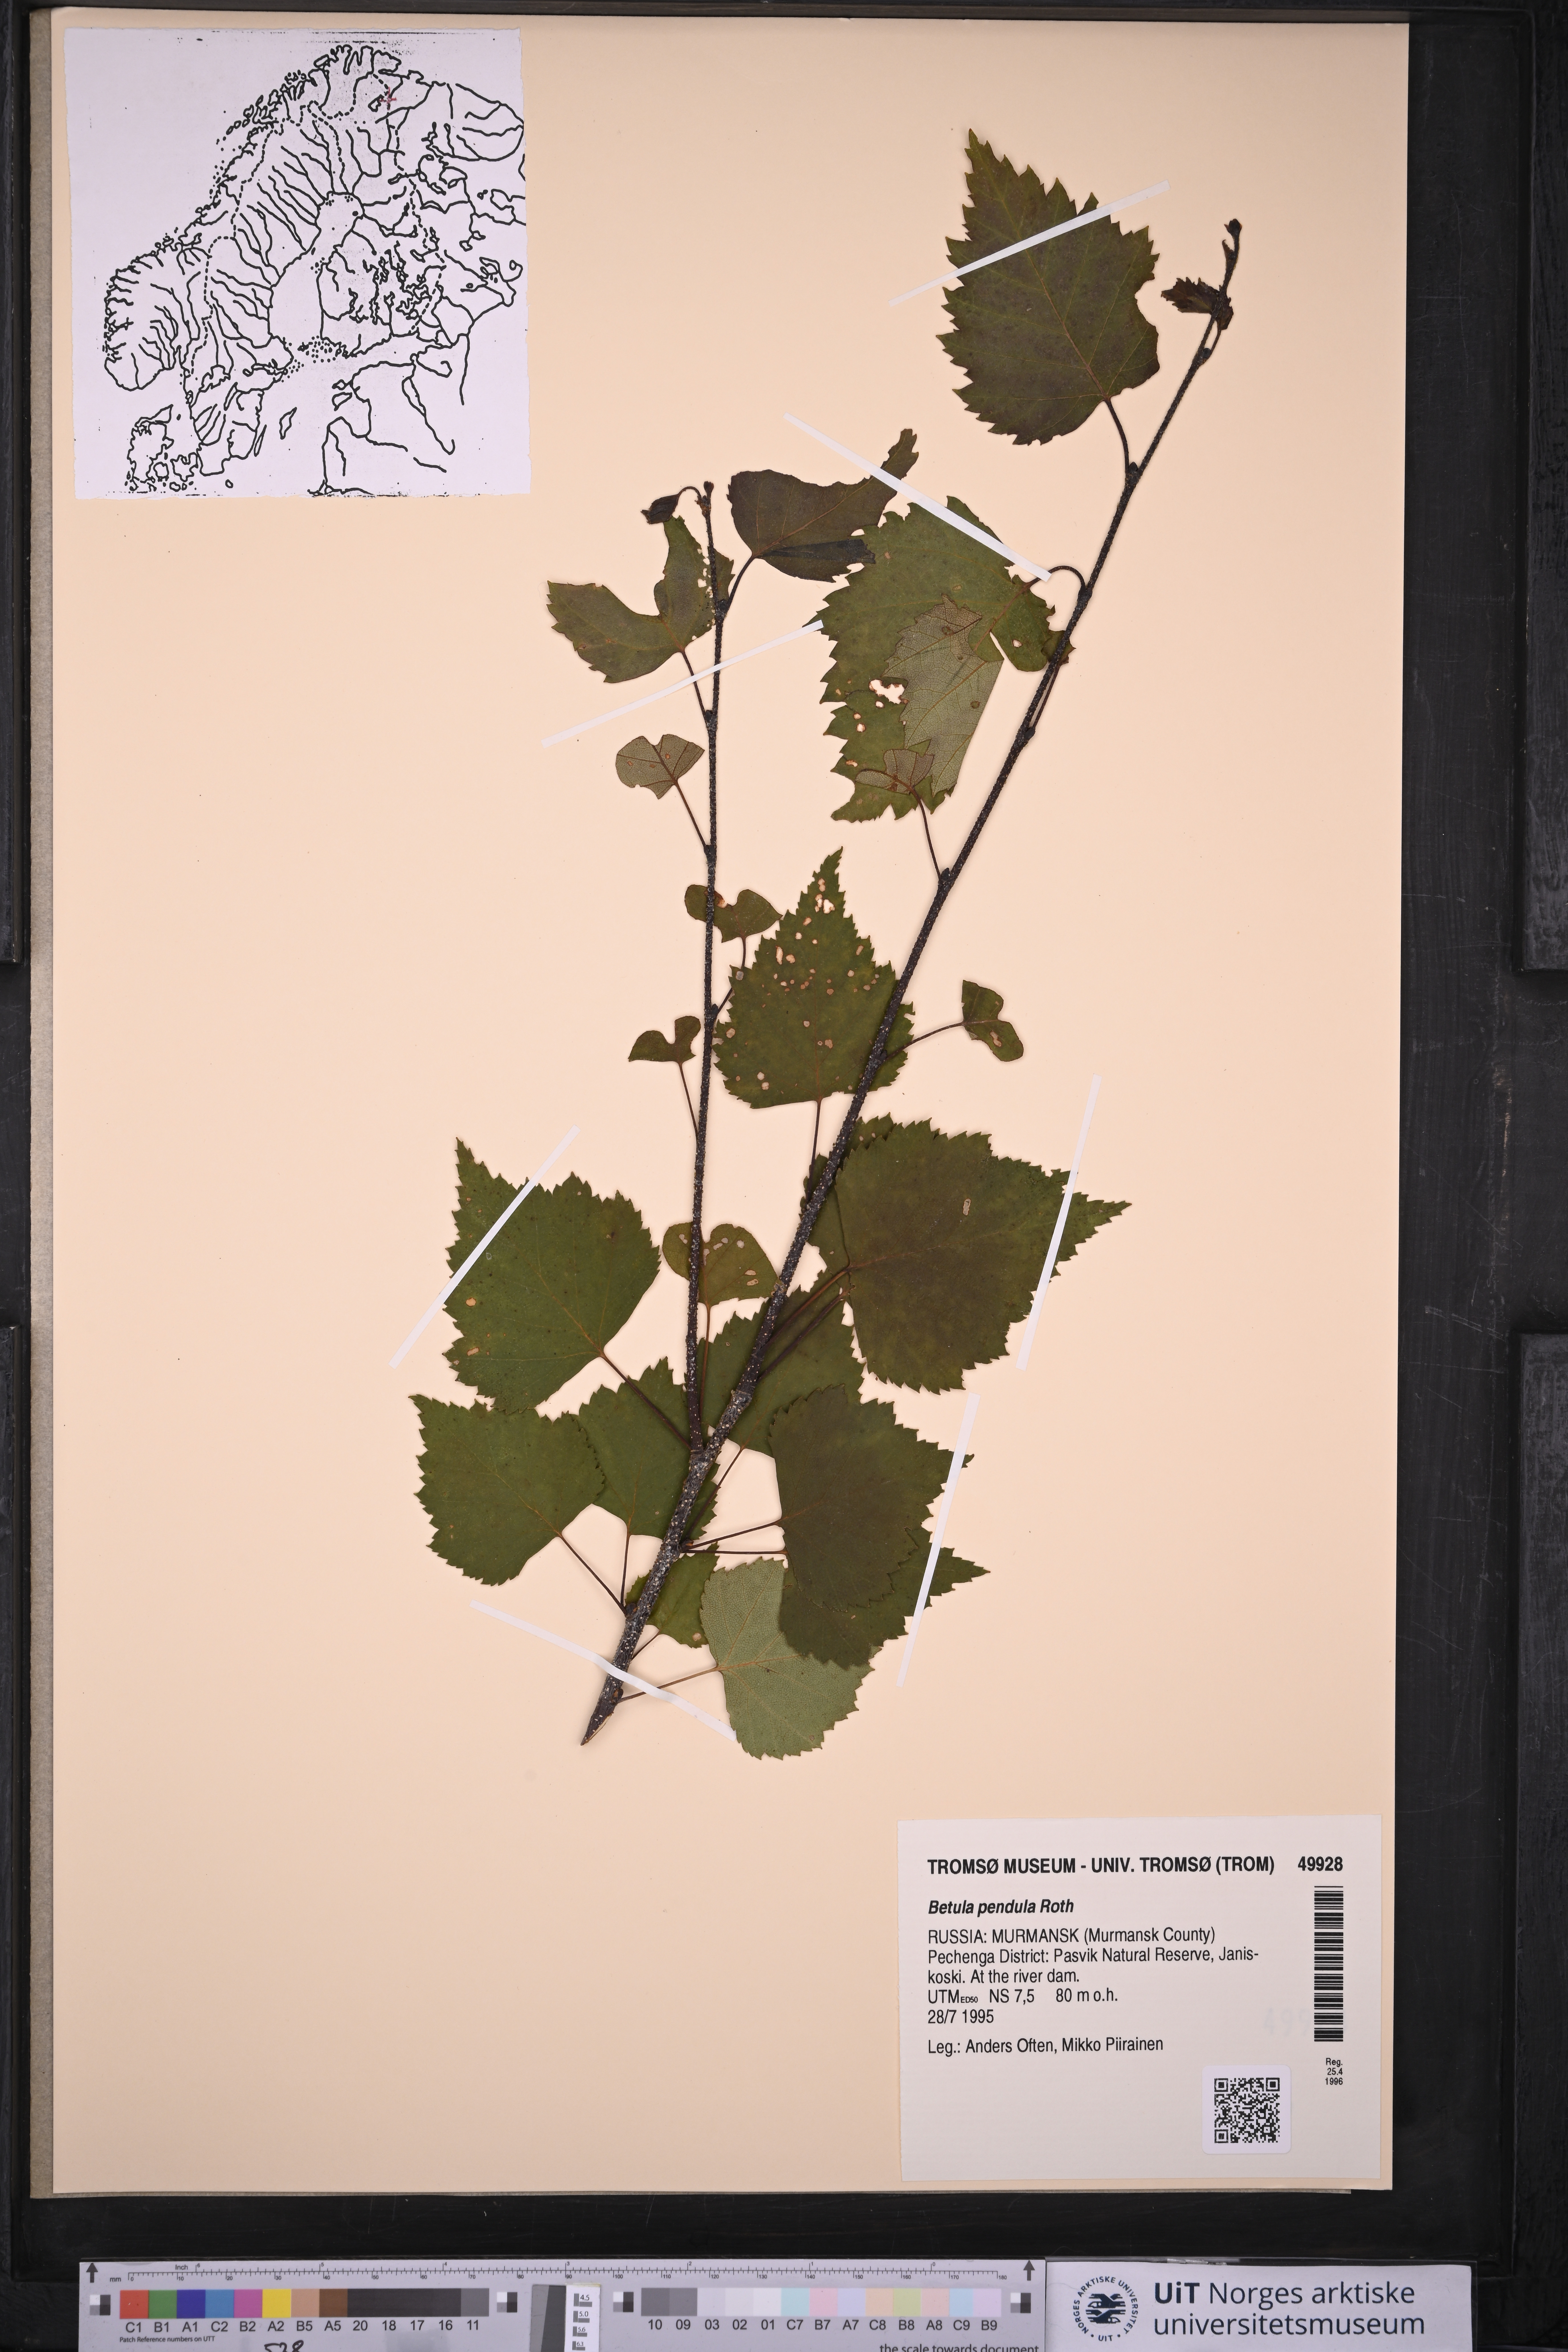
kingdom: Plantae
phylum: Tracheophyta
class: Magnoliopsida
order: Fagales
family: Betulaceae
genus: Betula
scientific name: Betula pendula
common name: Silver birch
